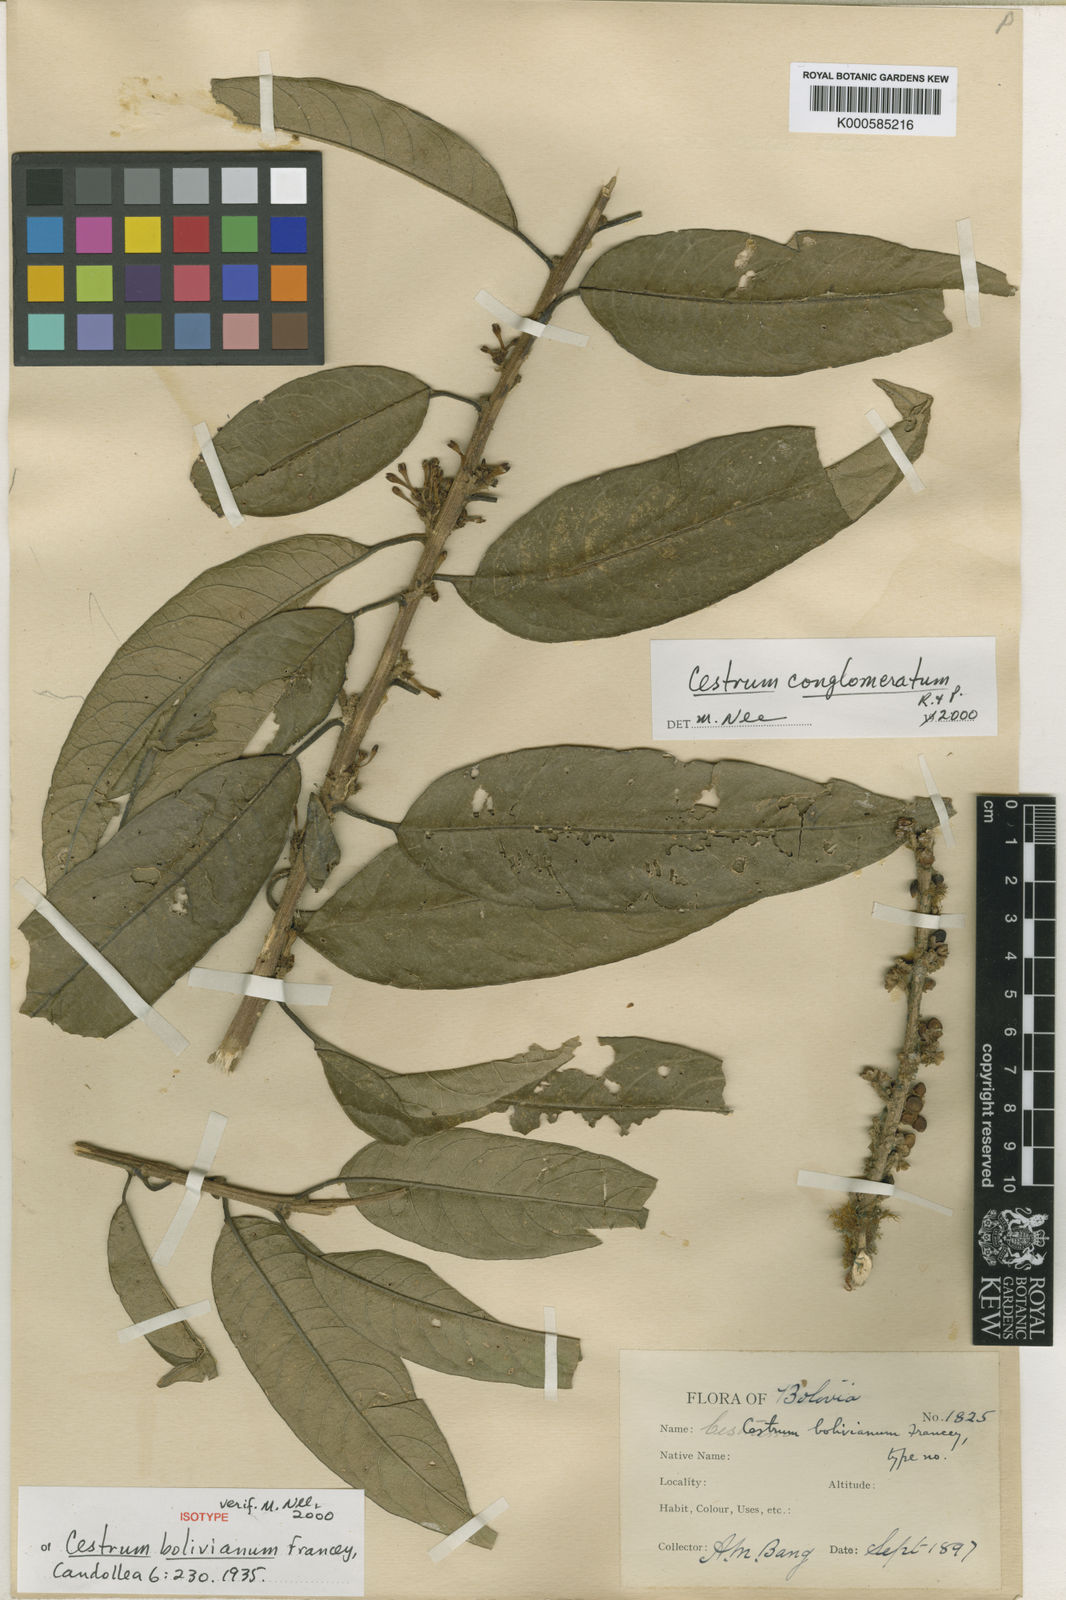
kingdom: Plantae
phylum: Tracheophyta
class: Magnoliopsida
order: Solanales
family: Solanaceae
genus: Cestrum
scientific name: Cestrum conglomeratum
